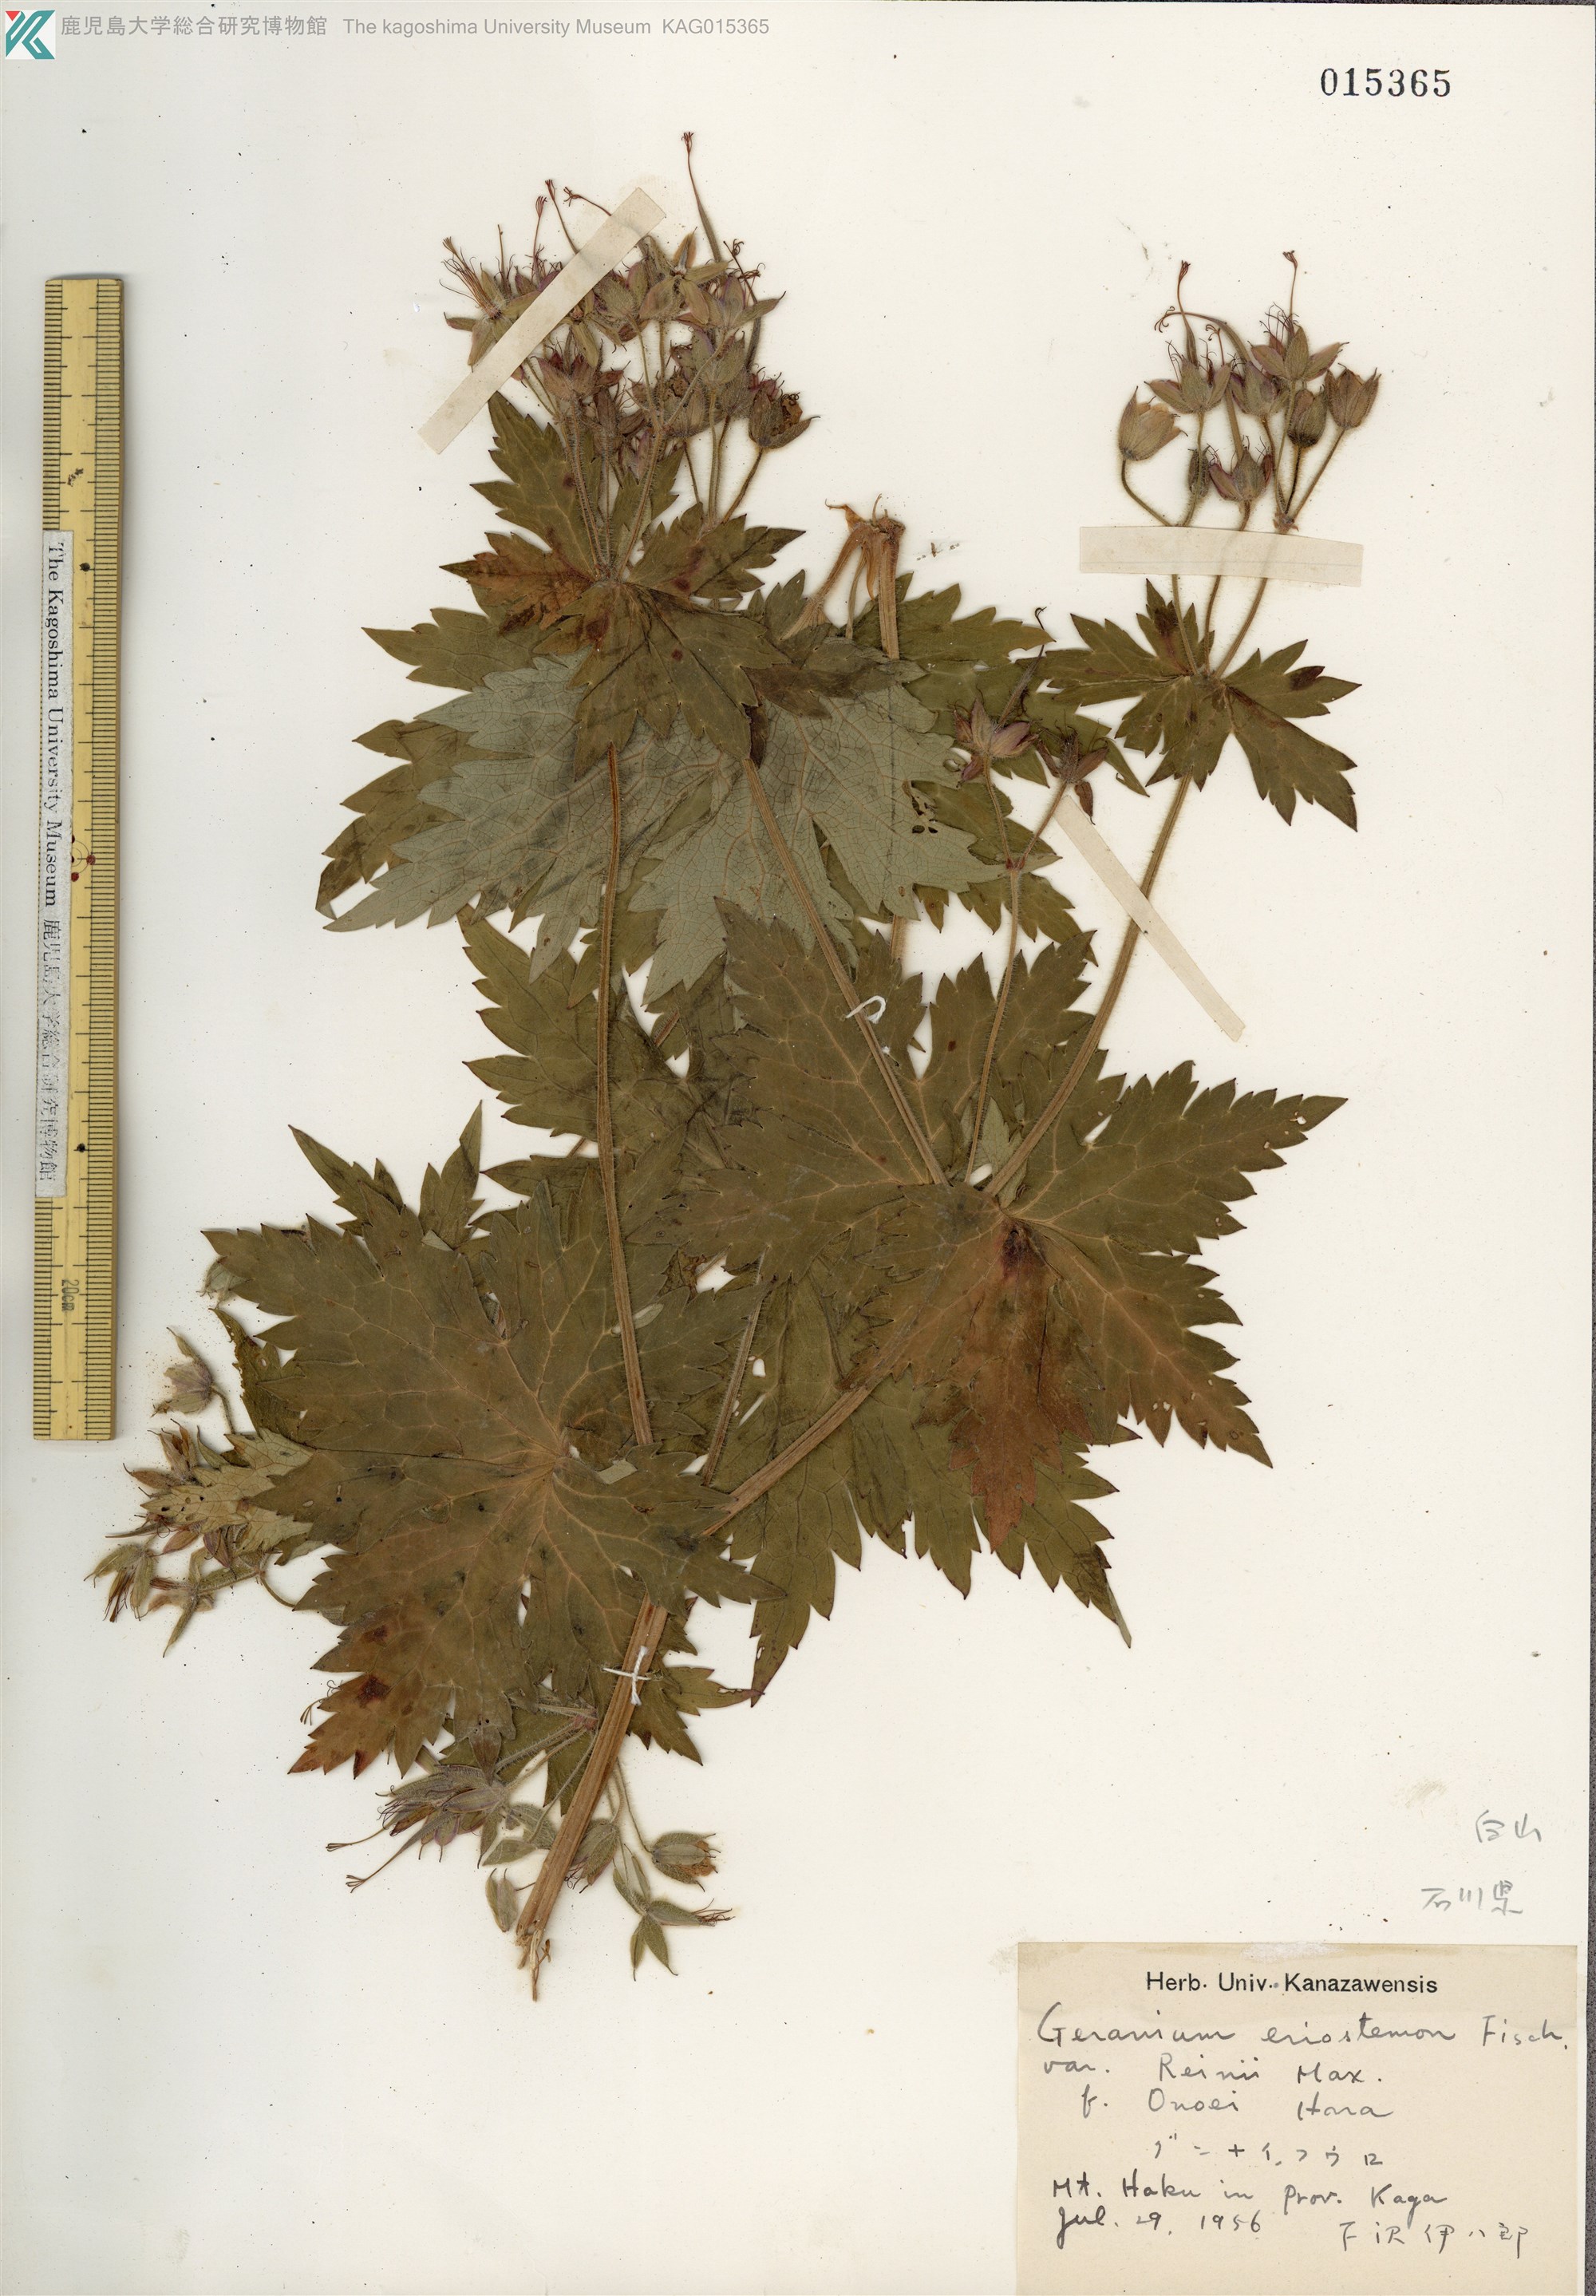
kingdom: Plantae
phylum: Tracheophyta
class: Magnoliopsida
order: Geraniales
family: Geraniaceae
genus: Geranium
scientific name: Geranium reinii
